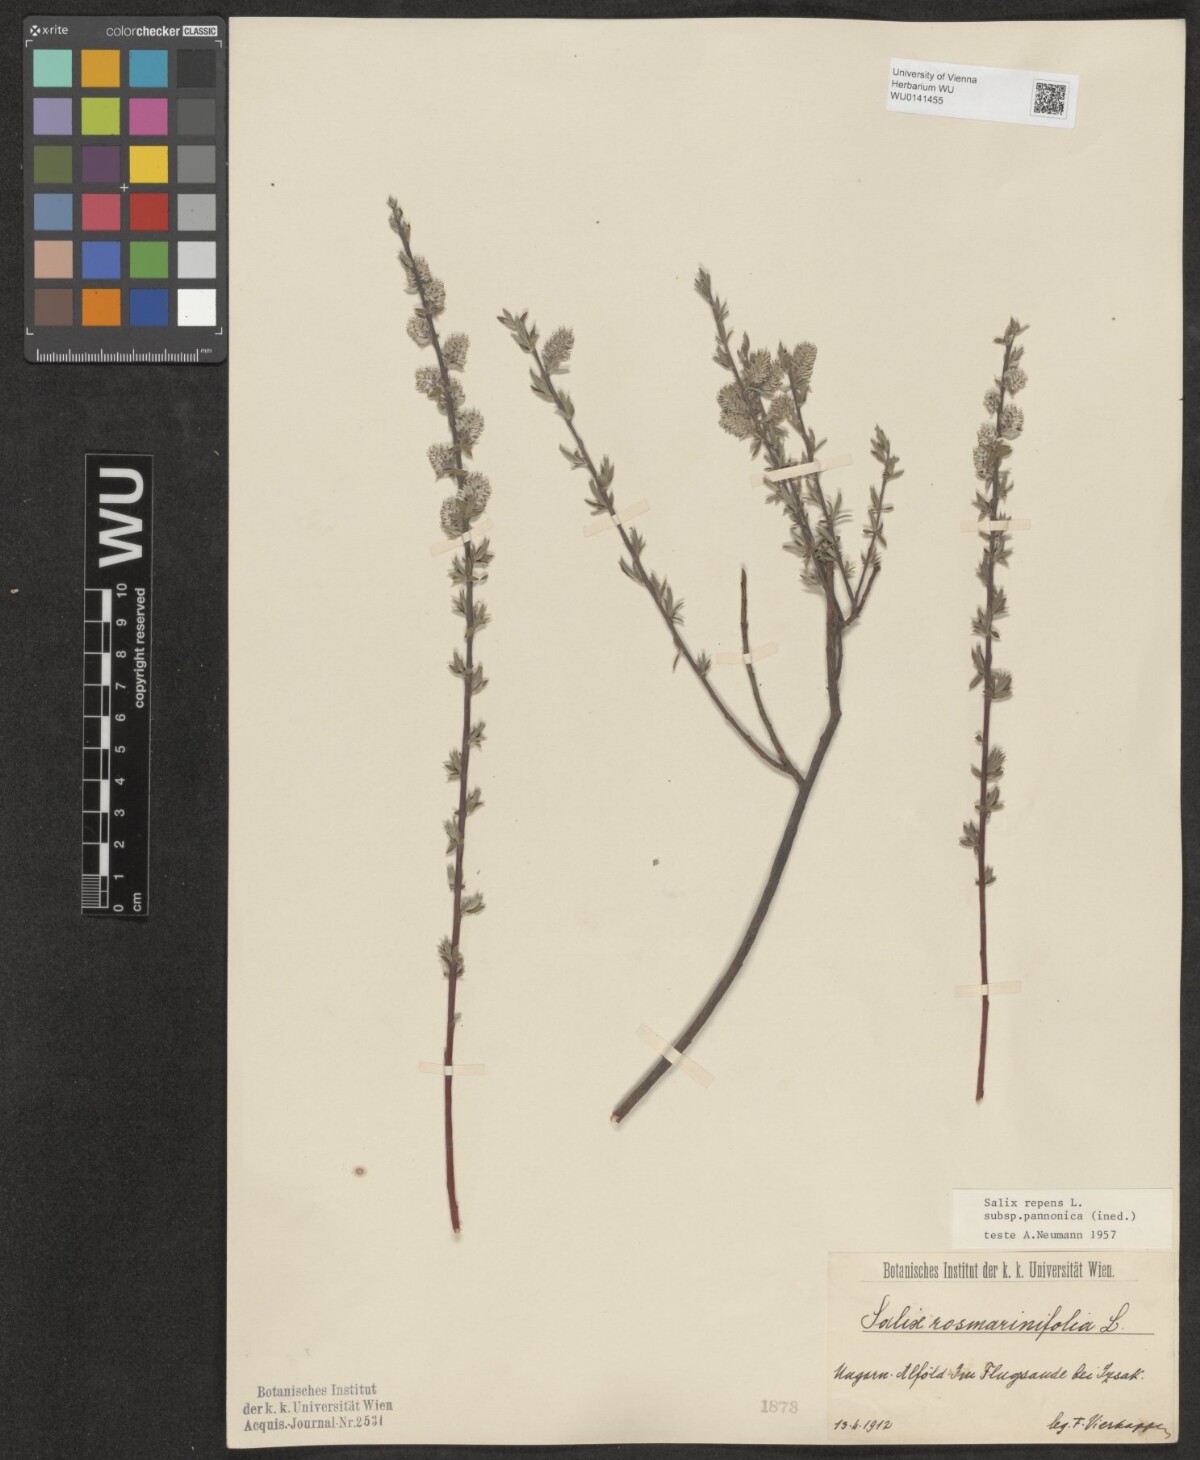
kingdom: Plantae
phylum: Tracheophyta
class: Magnoliopsida
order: Malpighiales
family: Salicaceae
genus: Salix
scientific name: Salix repens
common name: Creeping willow
